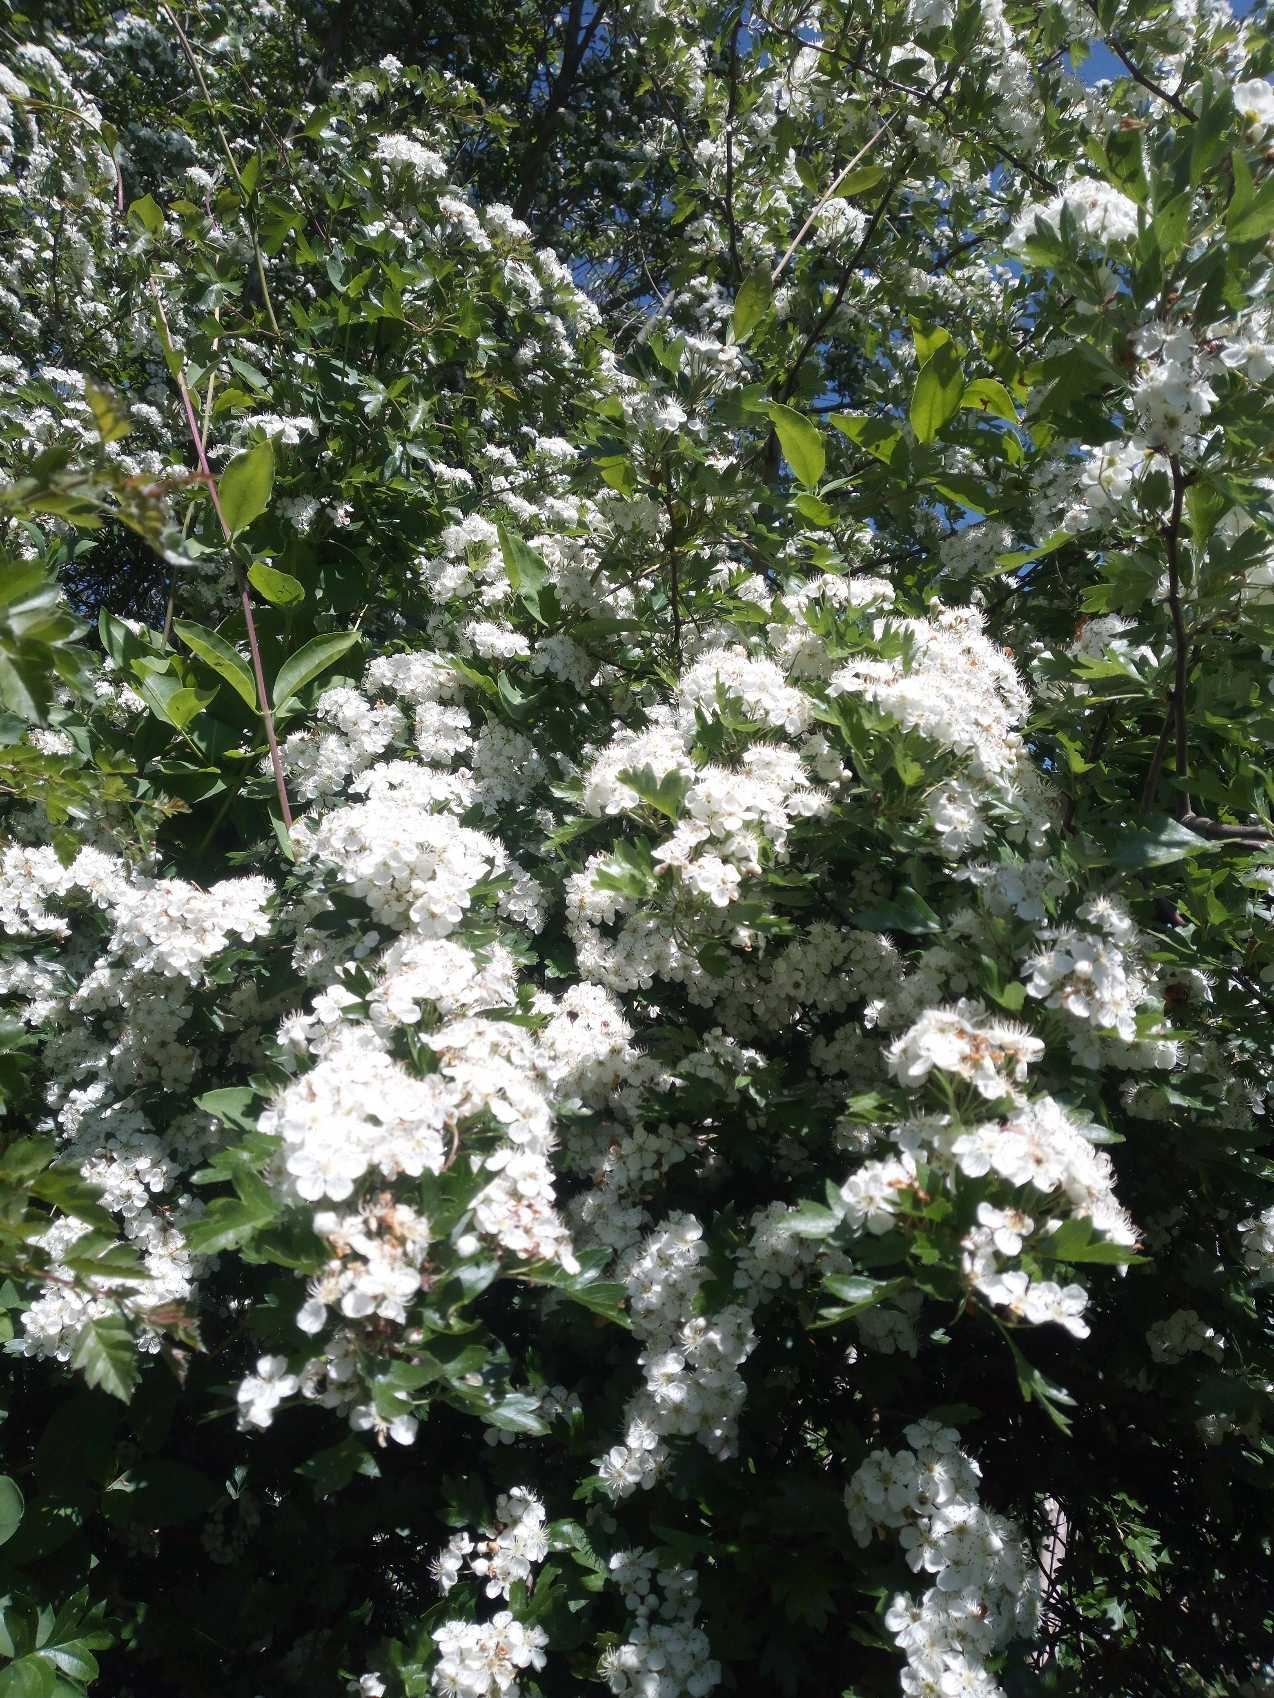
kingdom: Plantae
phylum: Tracheophyta
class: Magnoliopsida
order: Rosales
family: Rosaceae
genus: Crataegus
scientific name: Crataegus monogyna
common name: Engriflet hvidtjørn
